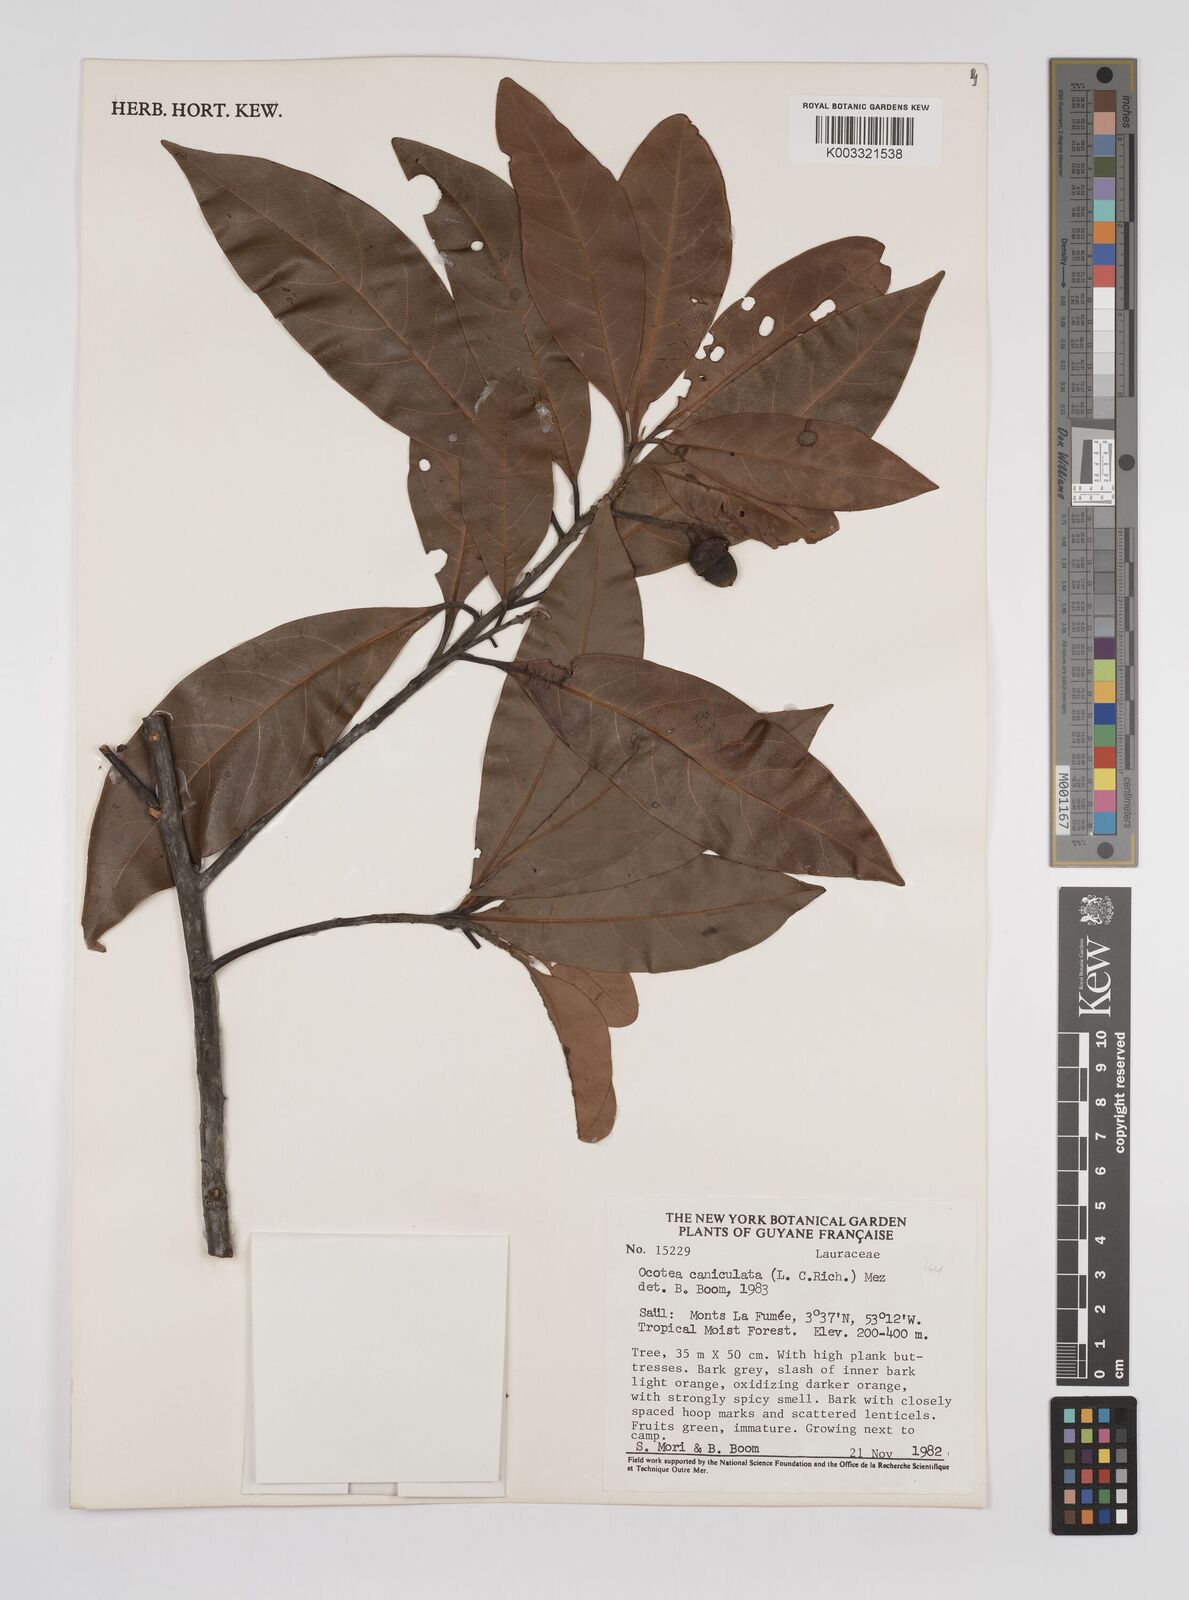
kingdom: Plantae
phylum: Tracheophyta
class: Magnoliopsida
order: Laurales
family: Lauraceae
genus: Ocotea
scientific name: Ocotea canaliculata
